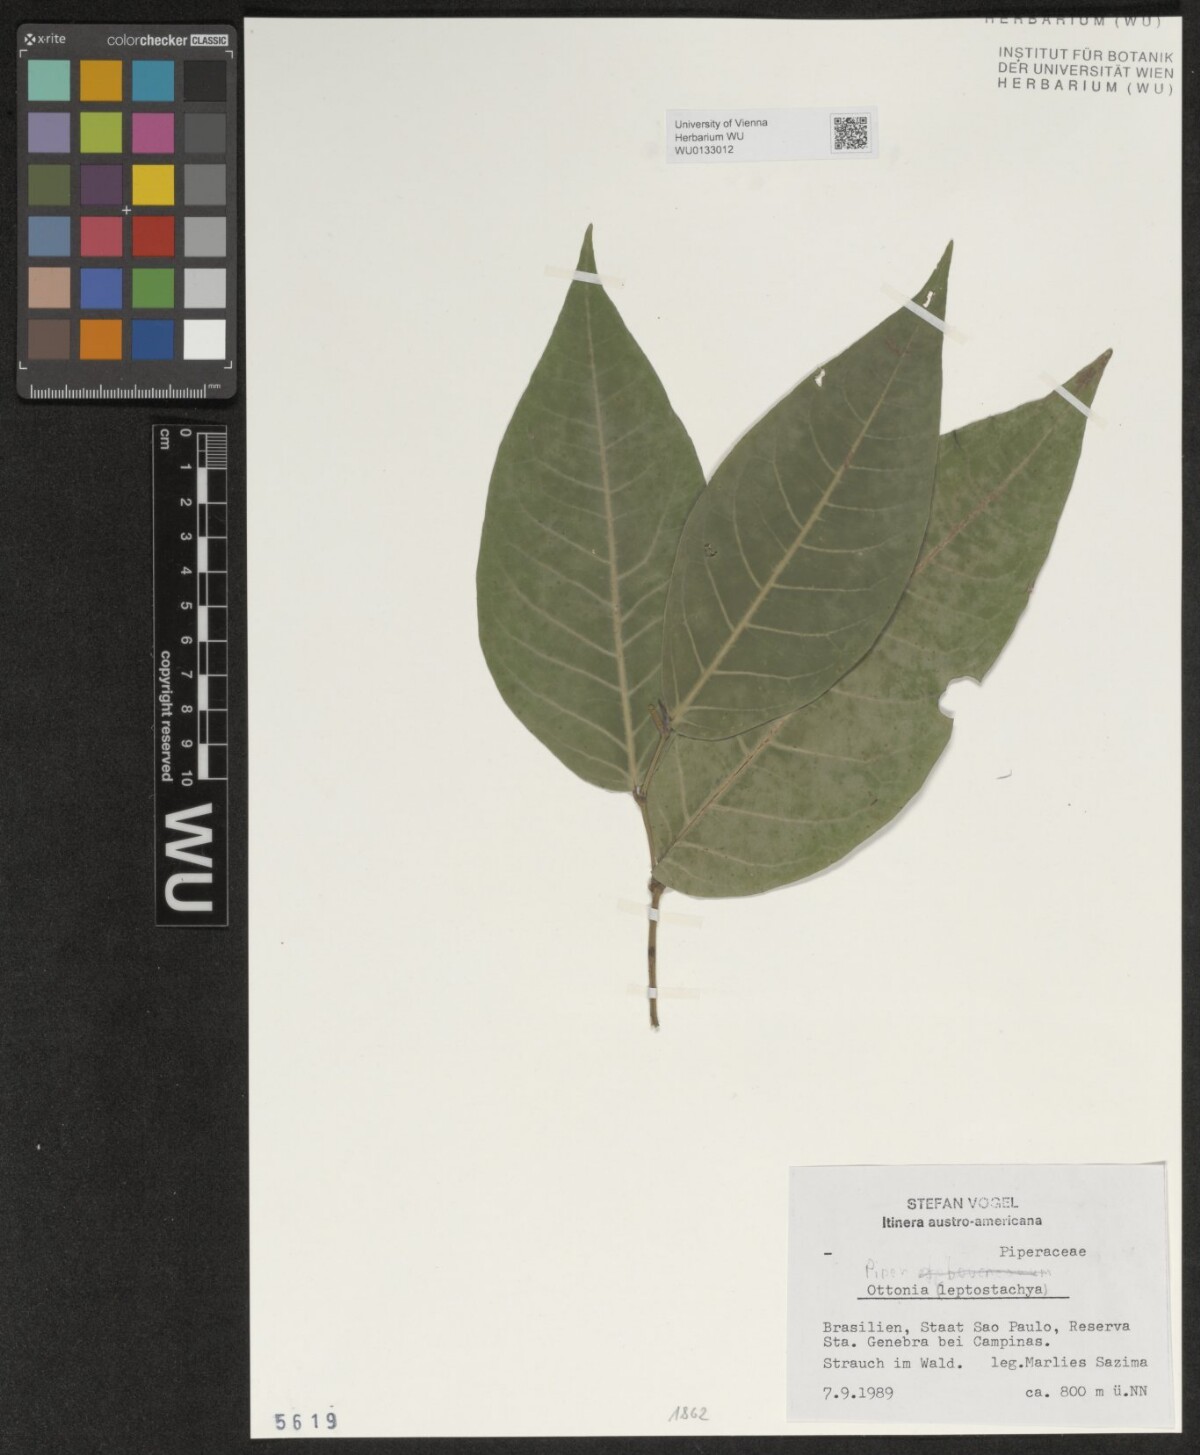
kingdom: Plantae
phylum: Tracheophyta
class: Magnoliopsida
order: Piperales
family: Piperaceae
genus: Piper
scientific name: Piper
